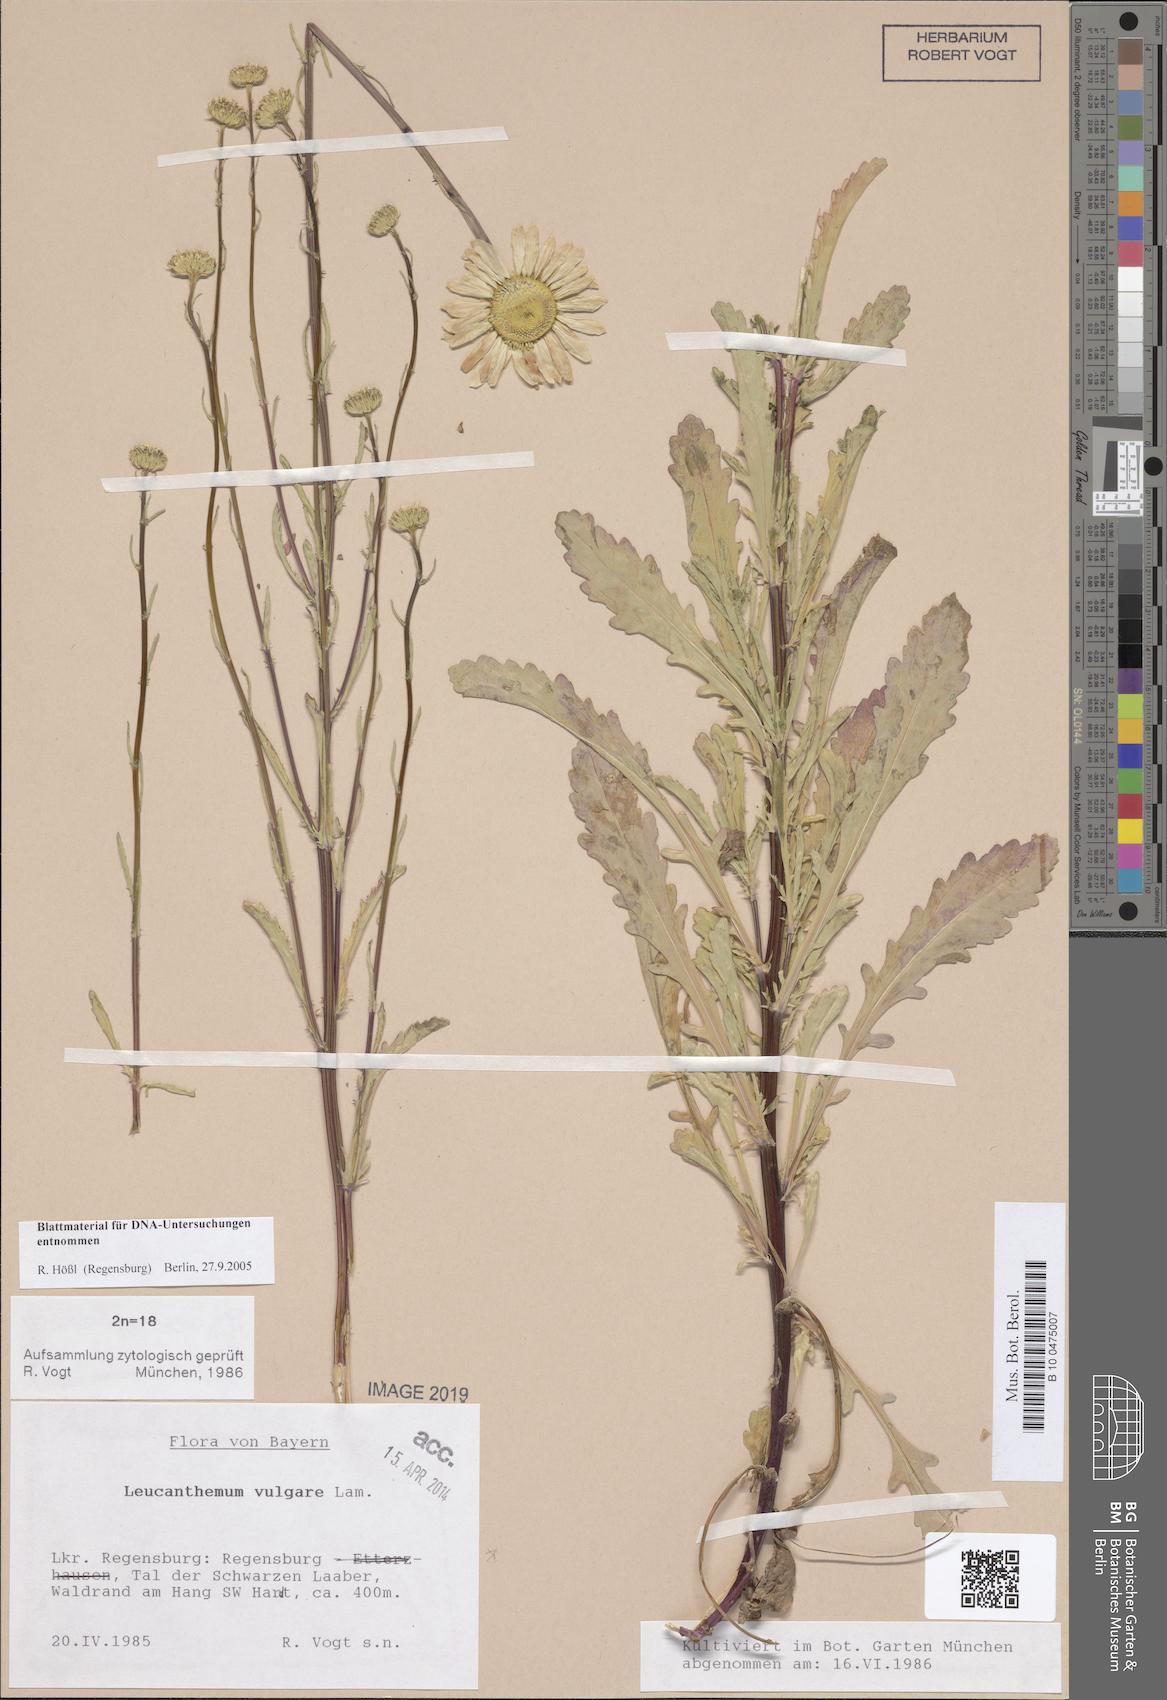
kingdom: Plantae
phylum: Tracheophyta
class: Magnoliopsida
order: Asterales
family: Asteraceae
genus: Leucanthemum
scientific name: Leucanthemum vulgare
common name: Oxeye daisy
